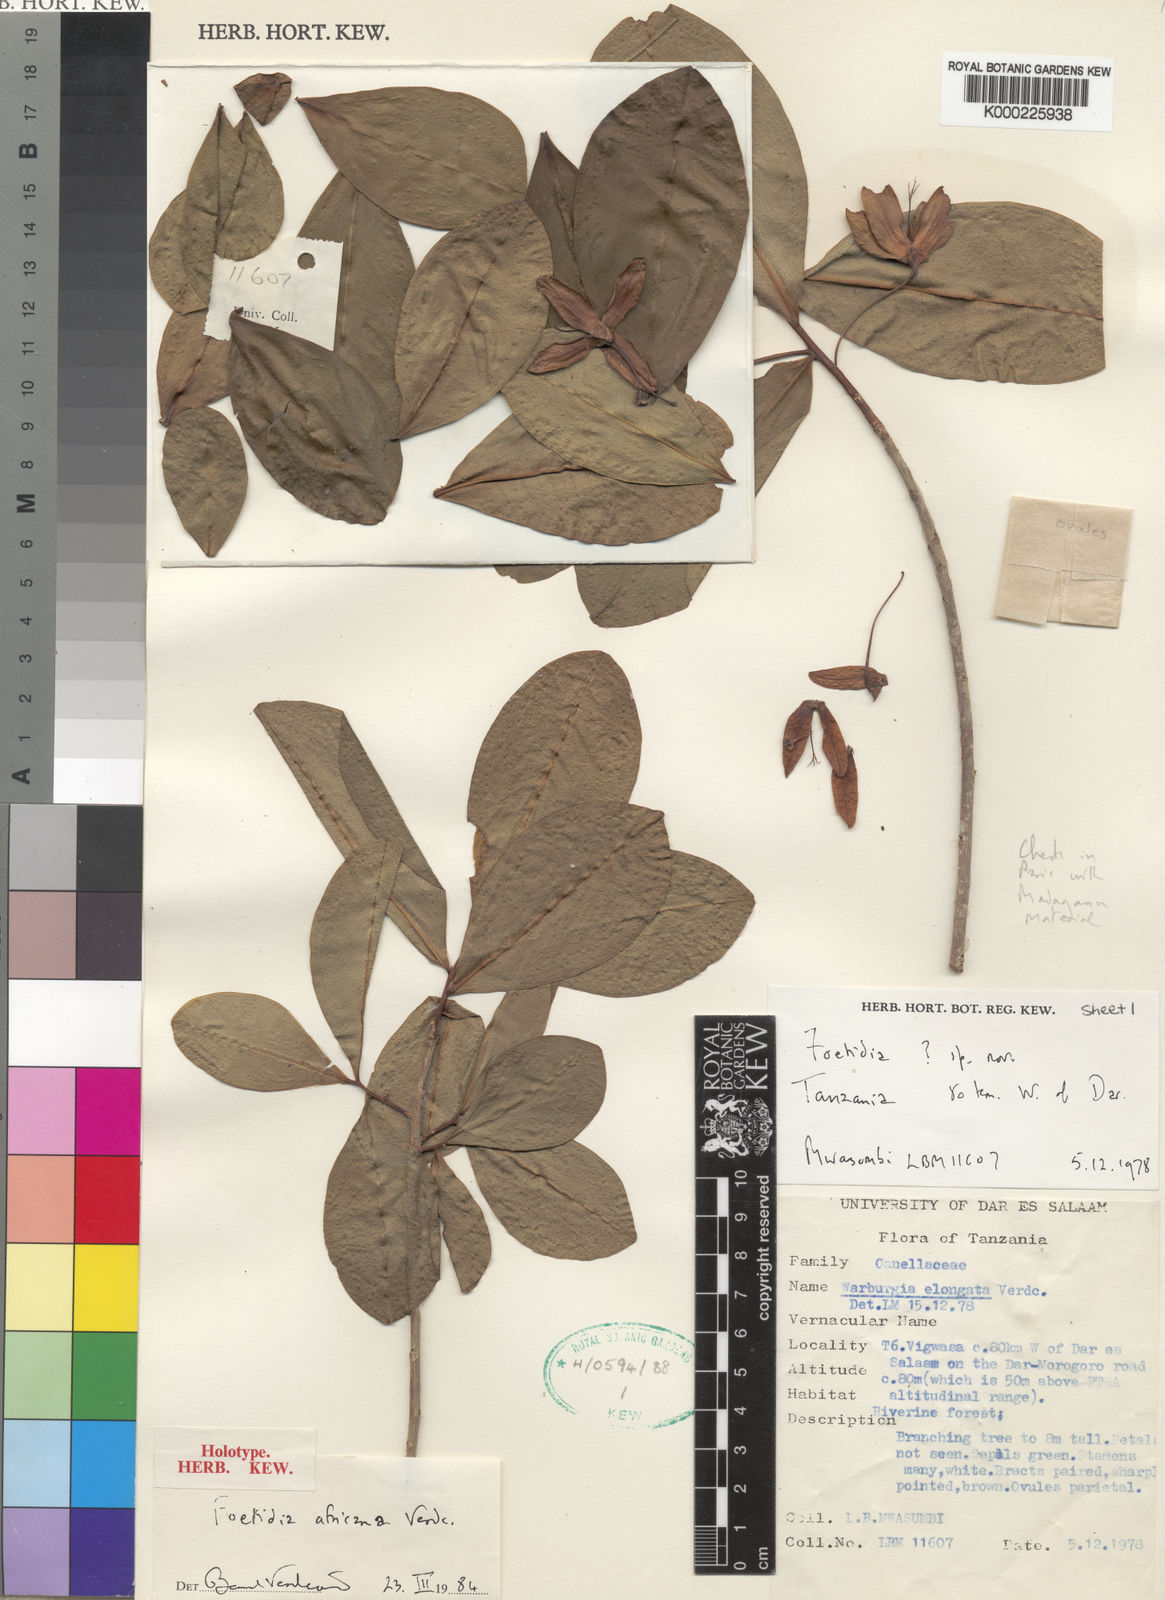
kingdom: Plantae
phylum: Tracheophyta
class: Magnoliopsida
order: Ericales
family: Lecythidaceae
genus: Foetidia
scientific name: Foetidia africana
